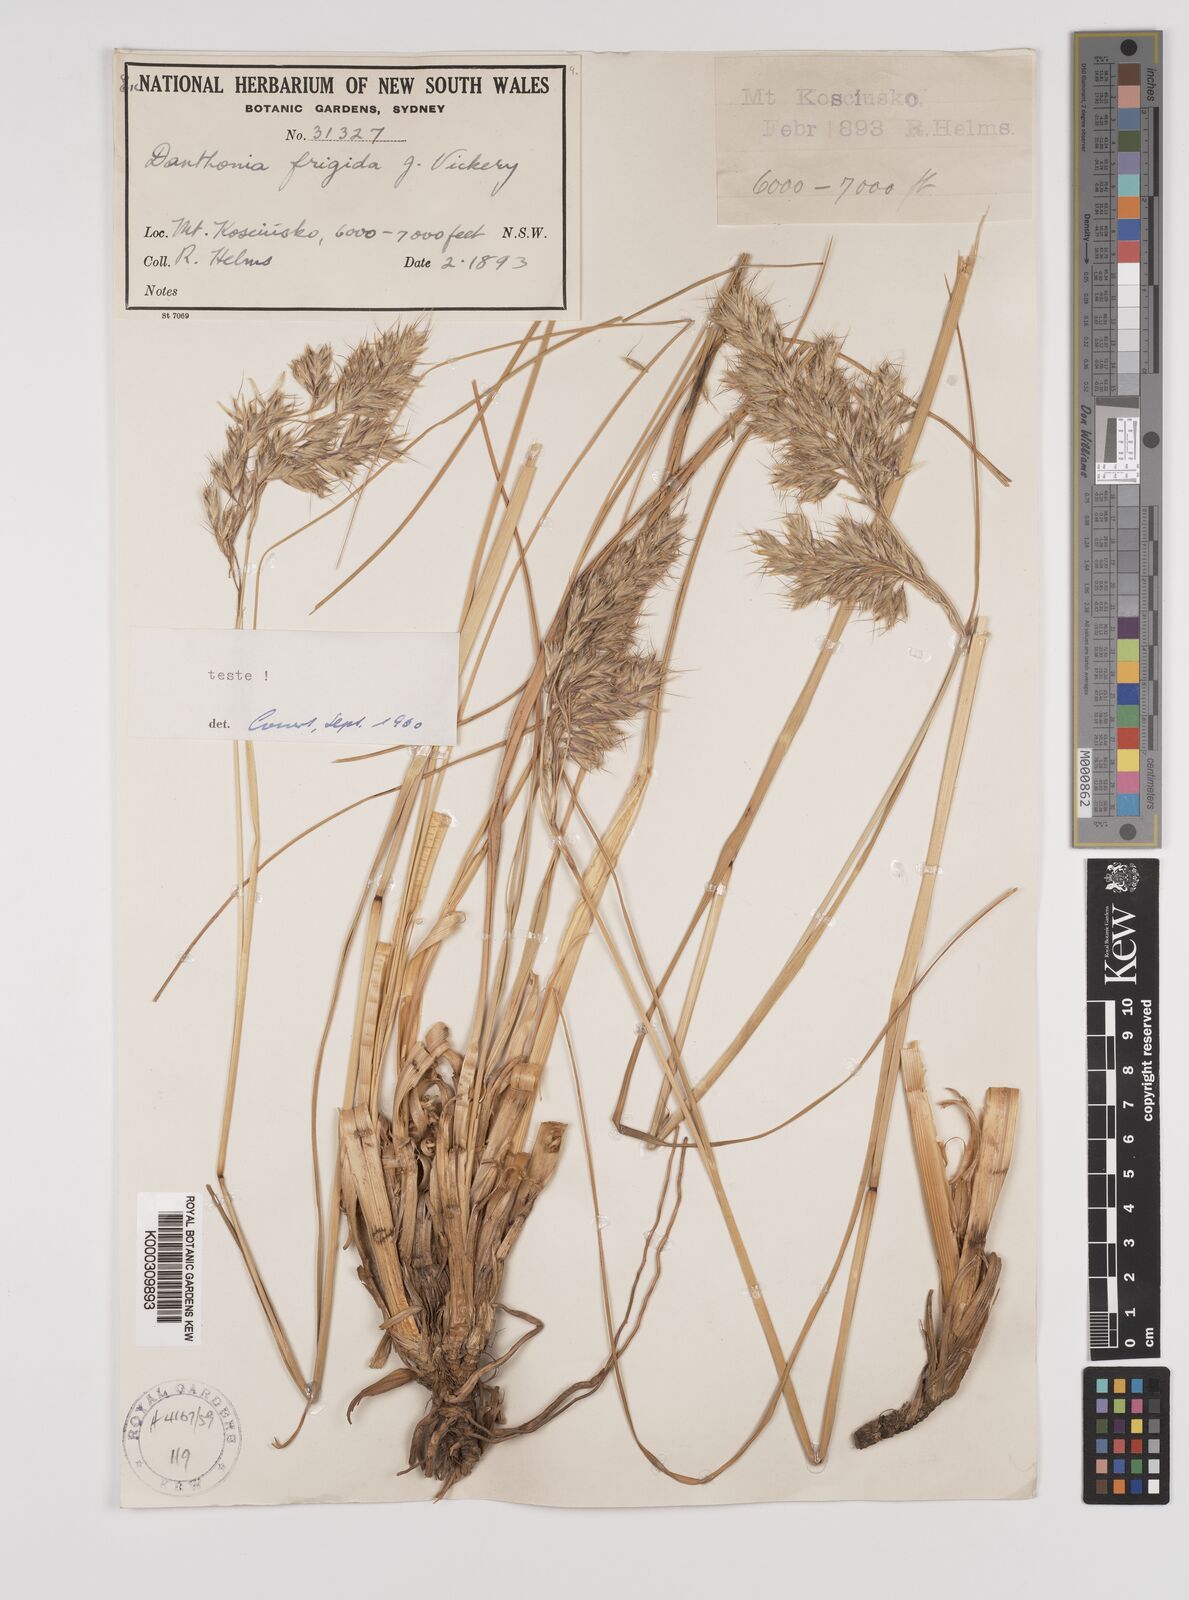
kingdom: Plantae
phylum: Tracheophyta
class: Liliopsida
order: Poales
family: Poaceae
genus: Chionochloa
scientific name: Chionochloa frigida
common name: Robust wallaby grass
